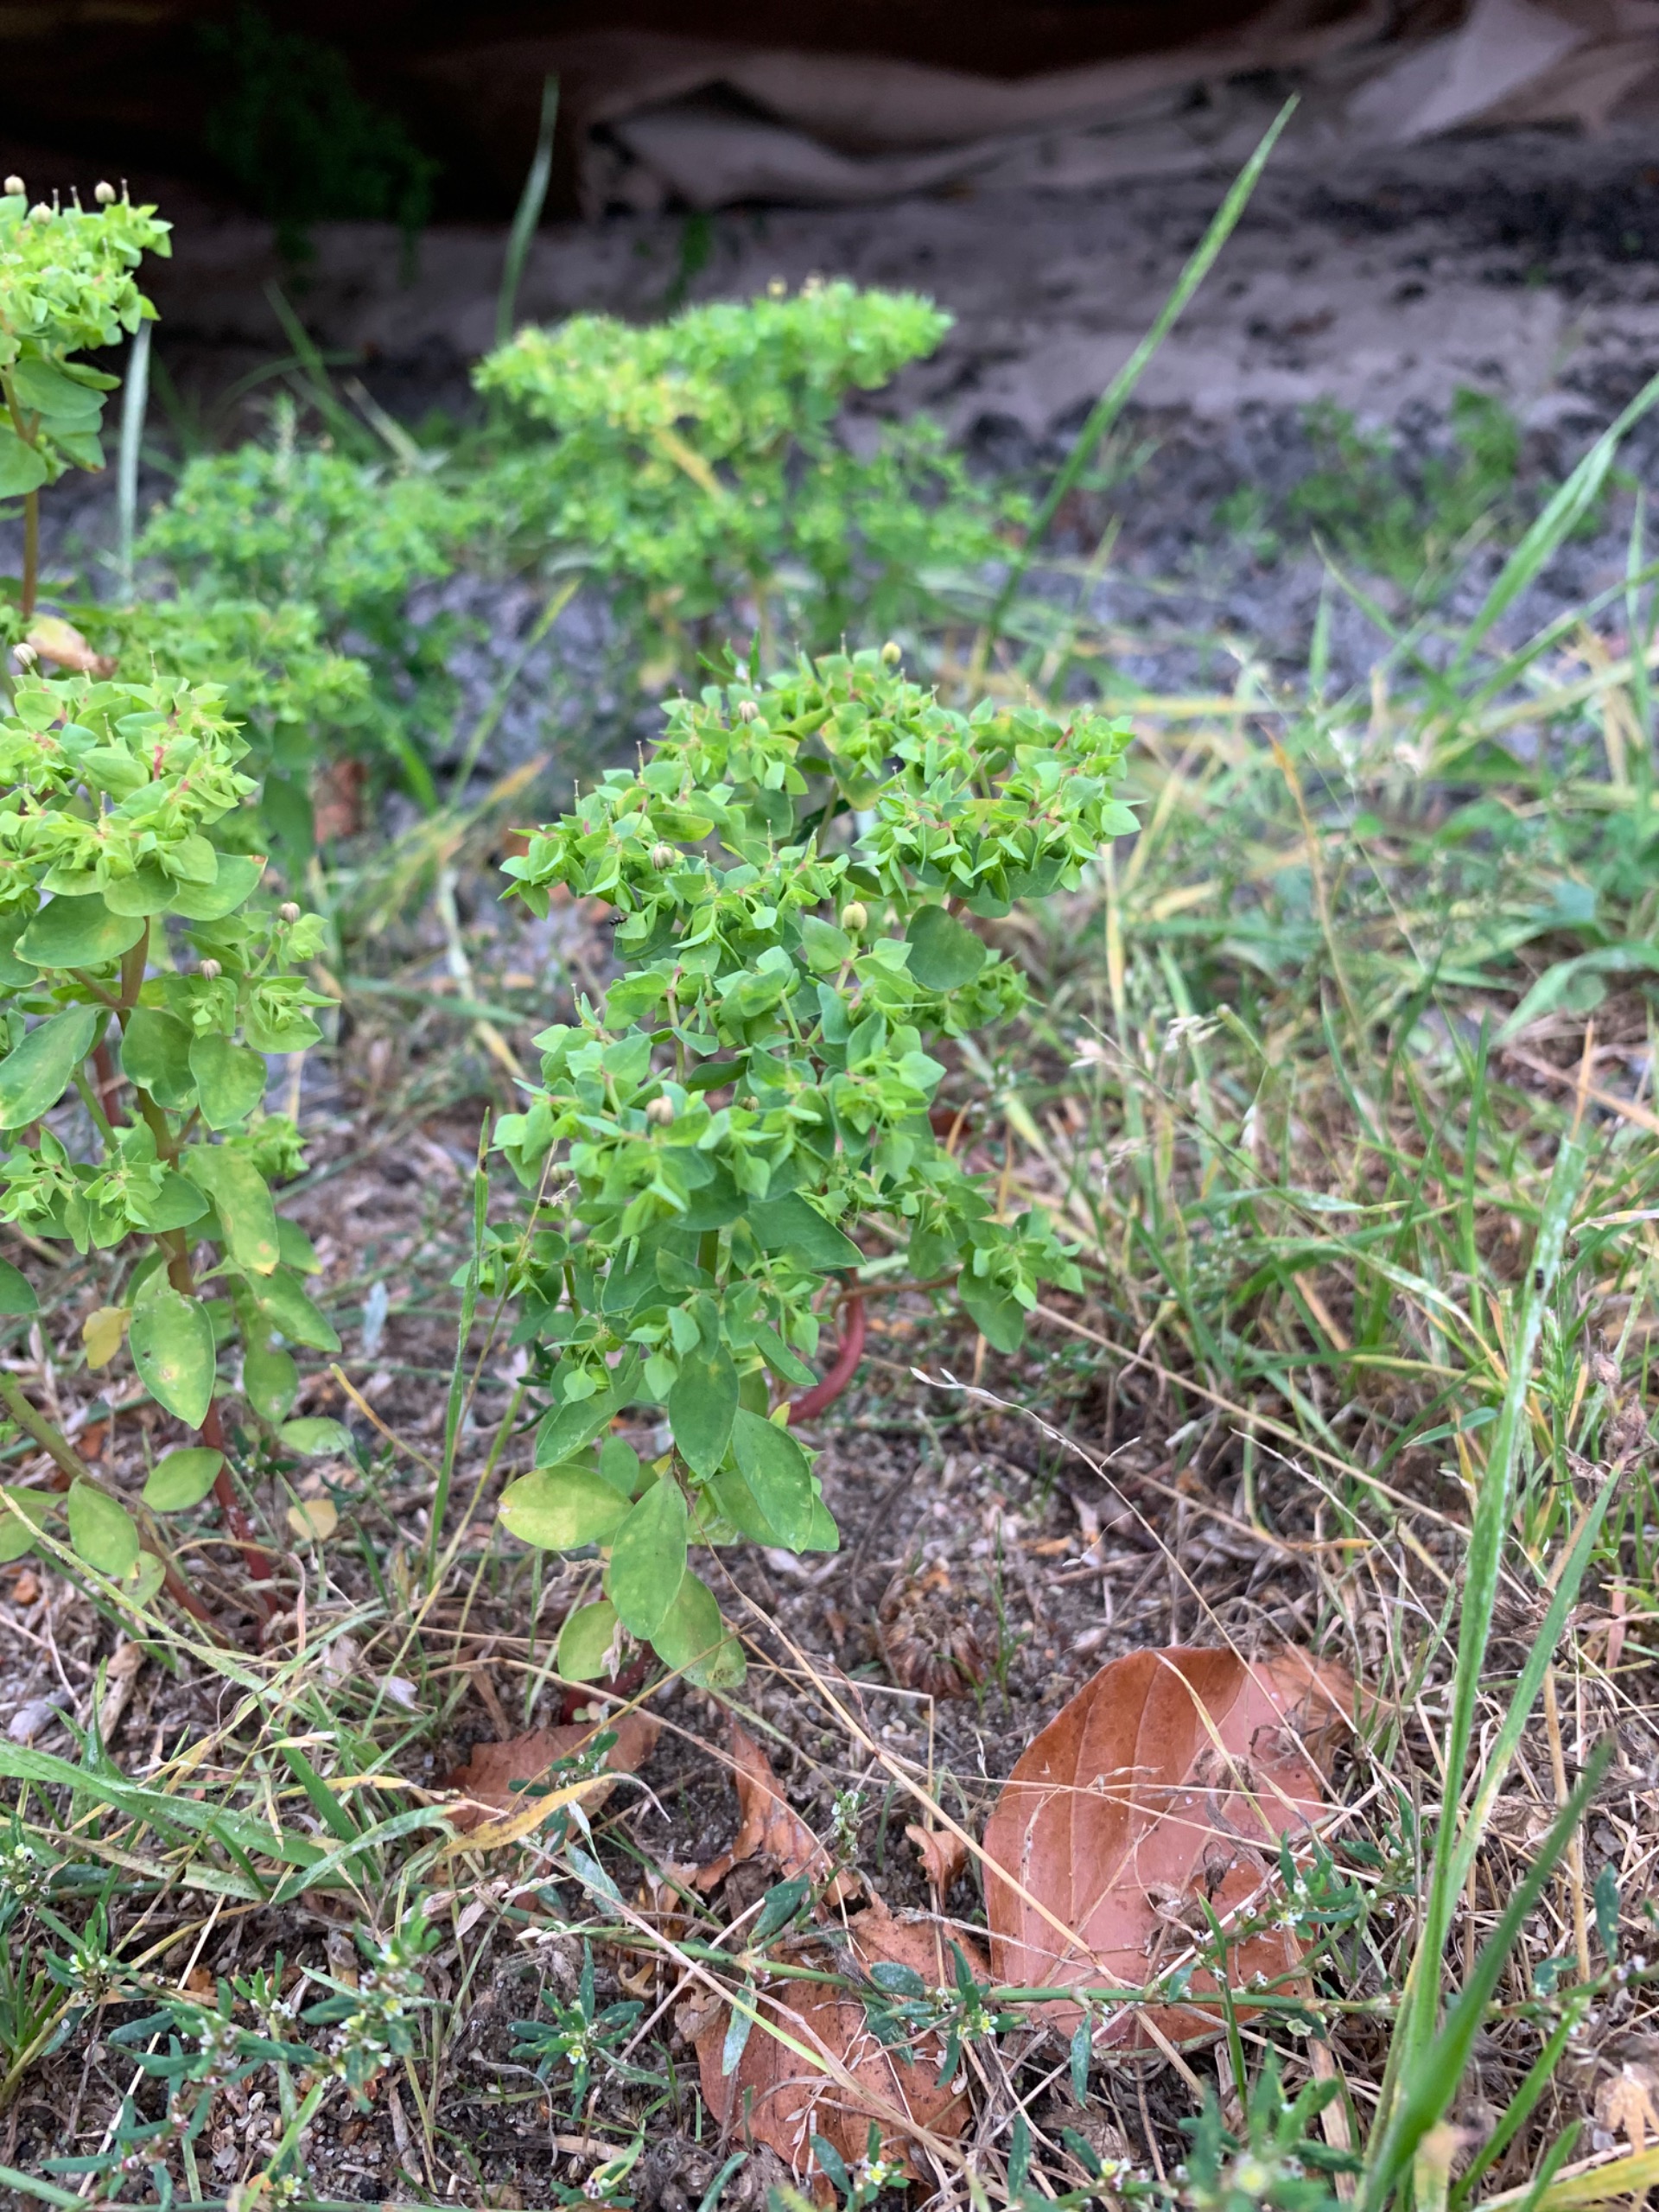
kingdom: Plantae
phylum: Tracheophyta
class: Magnoliopsida
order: Malpighiales
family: Euphorbiaceae
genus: Euphorbia
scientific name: Euphorbia peplus
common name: Gaffel-vortemælk
